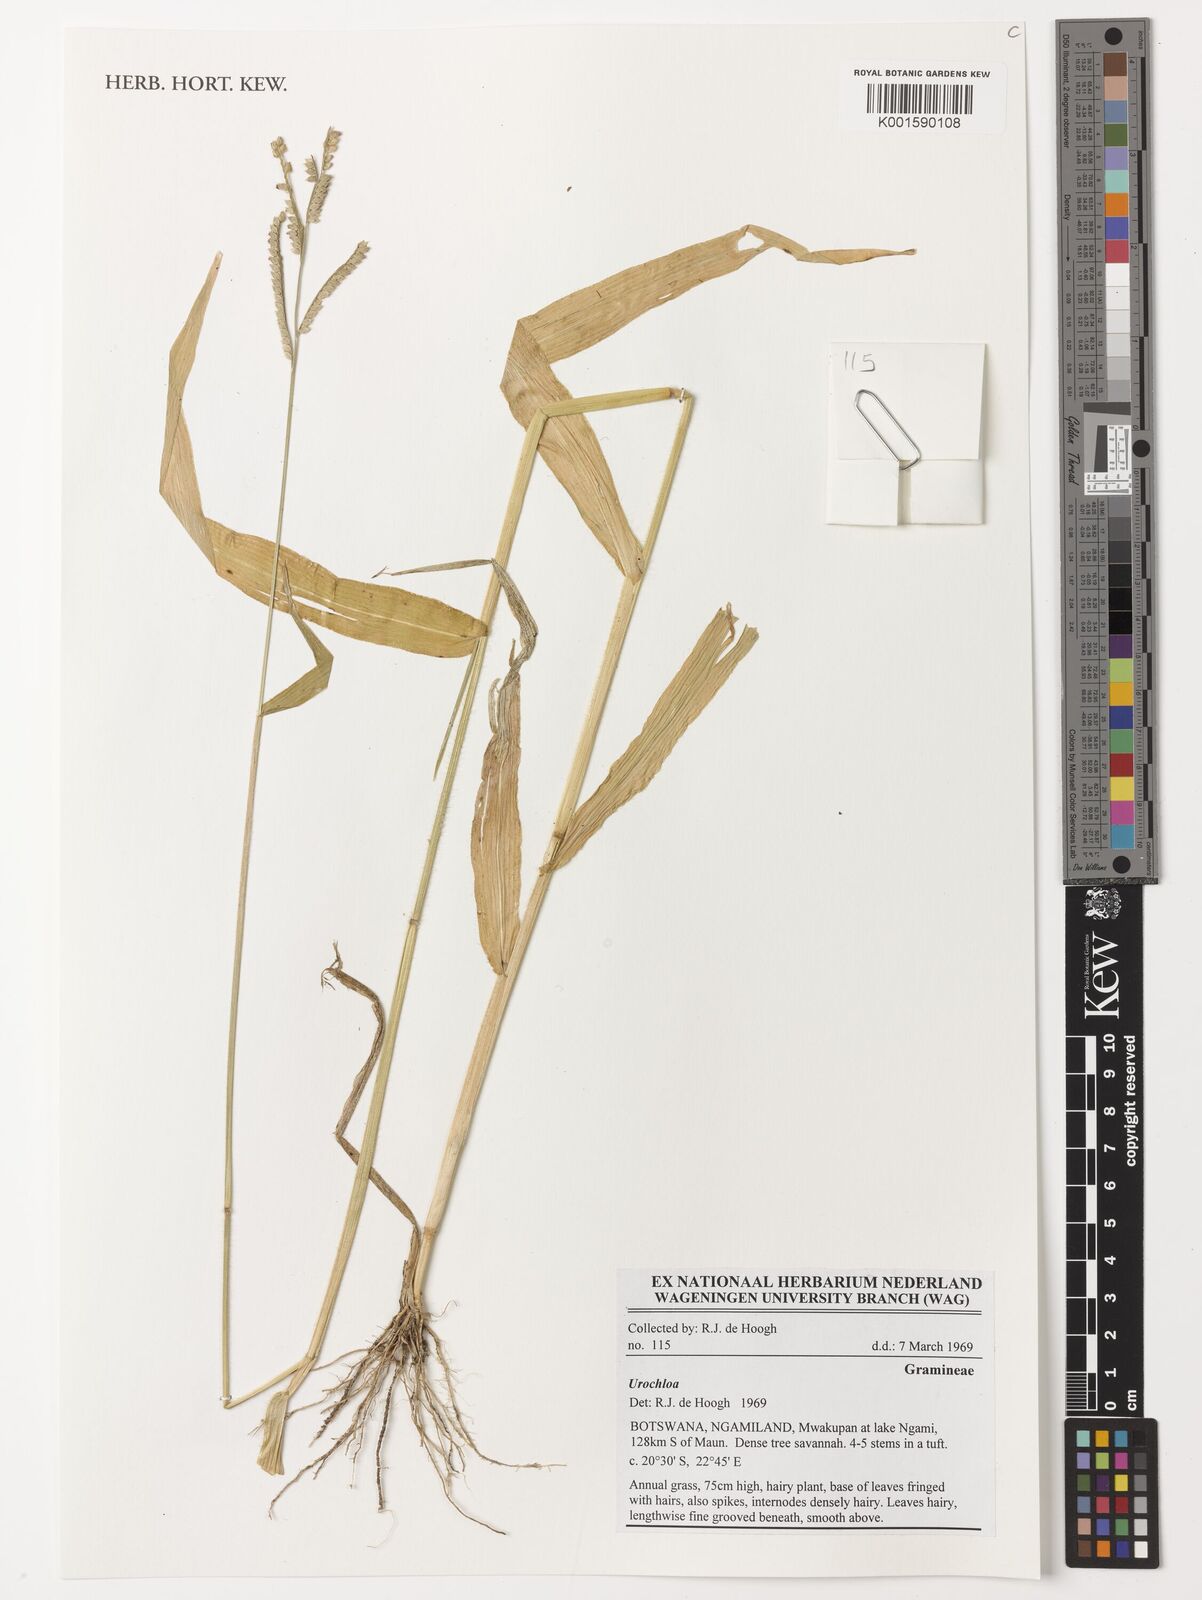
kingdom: Plantae
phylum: Tracheophyta
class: Liliopsida
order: Poales
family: Poaceae
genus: Urochloa
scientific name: Urochloa
